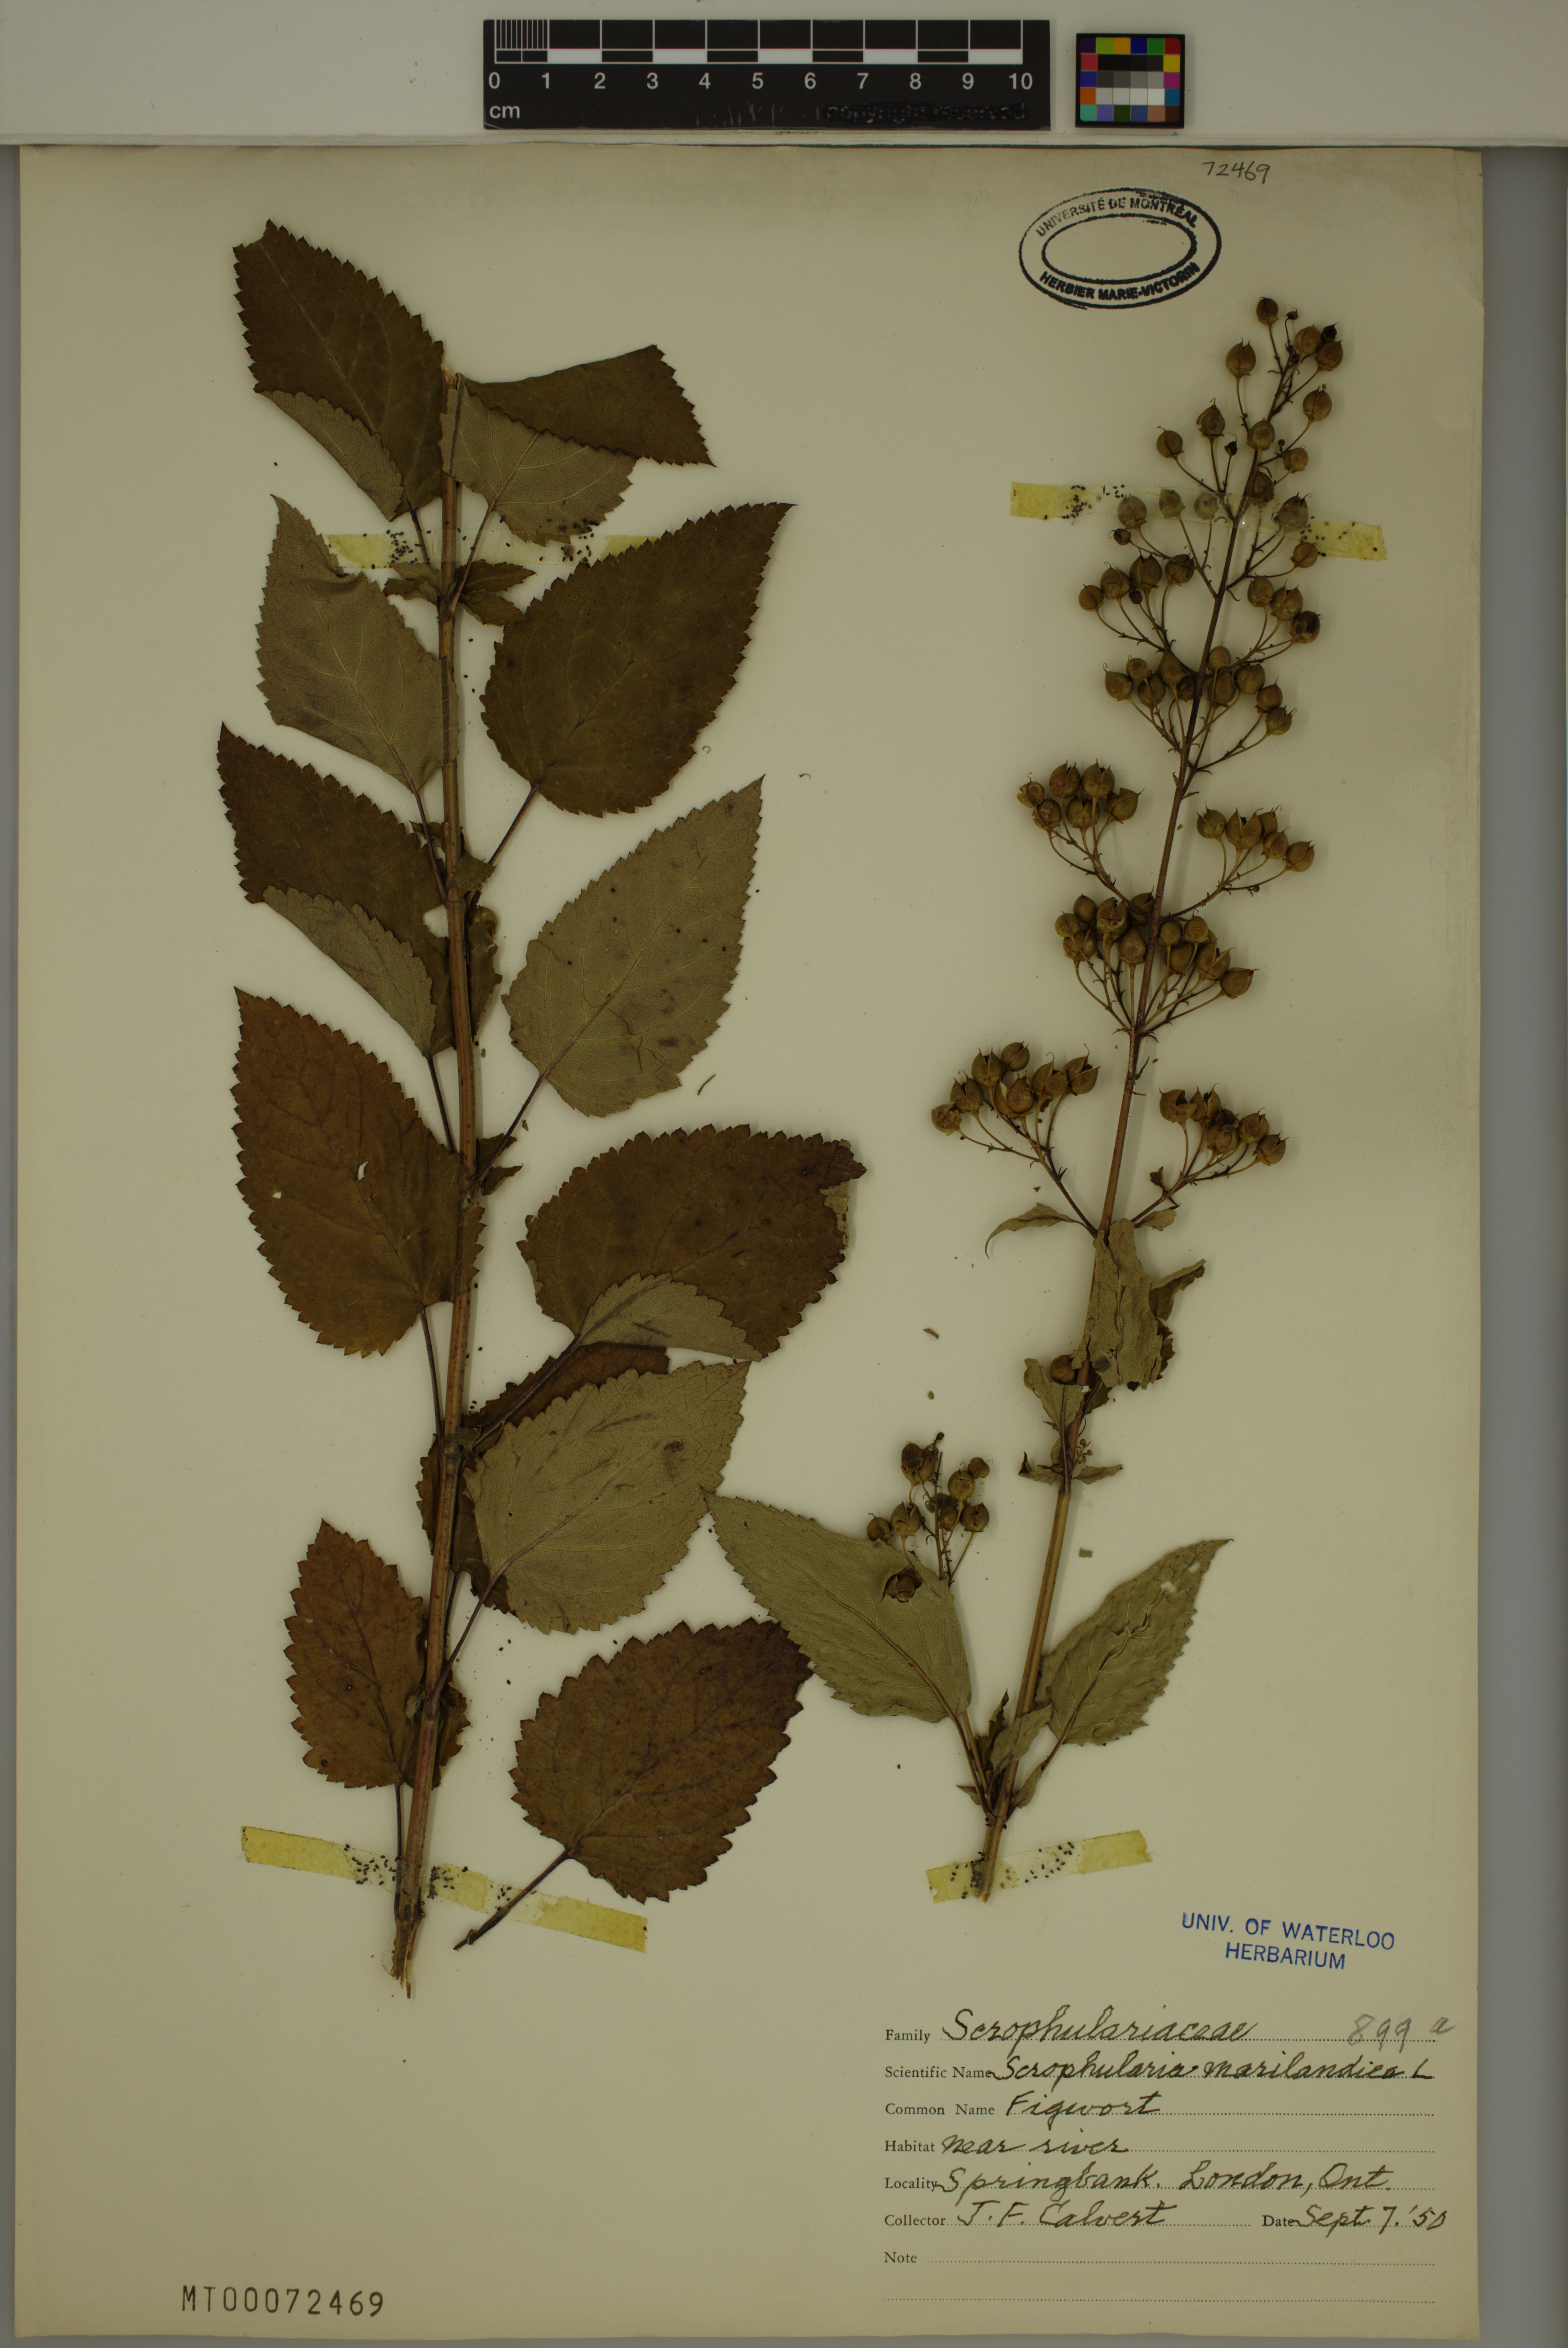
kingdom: Plantae
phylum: Tracheophyta
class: Magnoliopsida
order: Lamiales
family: Scrophulariaceae
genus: Scrophularia
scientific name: Scrophularia marilandica
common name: Eastern figwort
